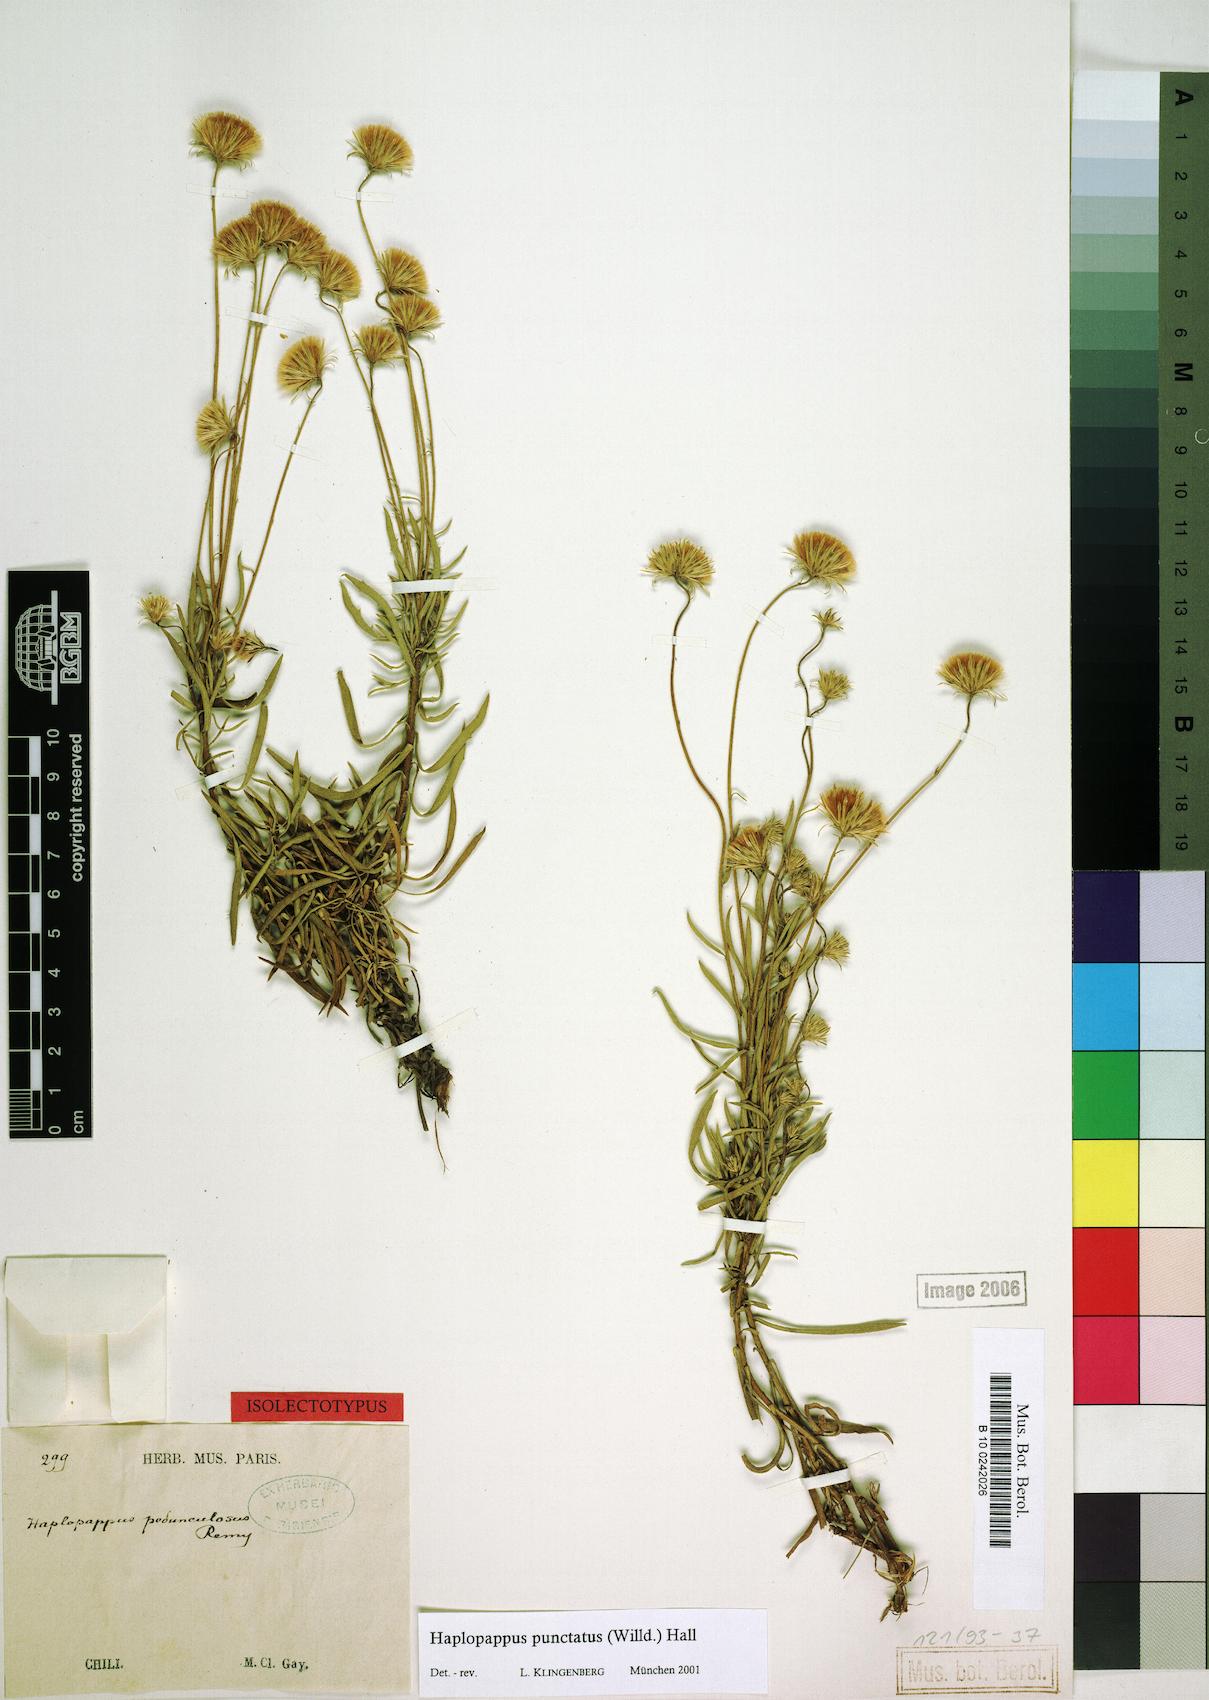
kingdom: Plantae
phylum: Tracheophyta
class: Magnoliopsida
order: Asterales
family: Asteraceae
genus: Haplopappus
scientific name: Haplopappus punctatus
